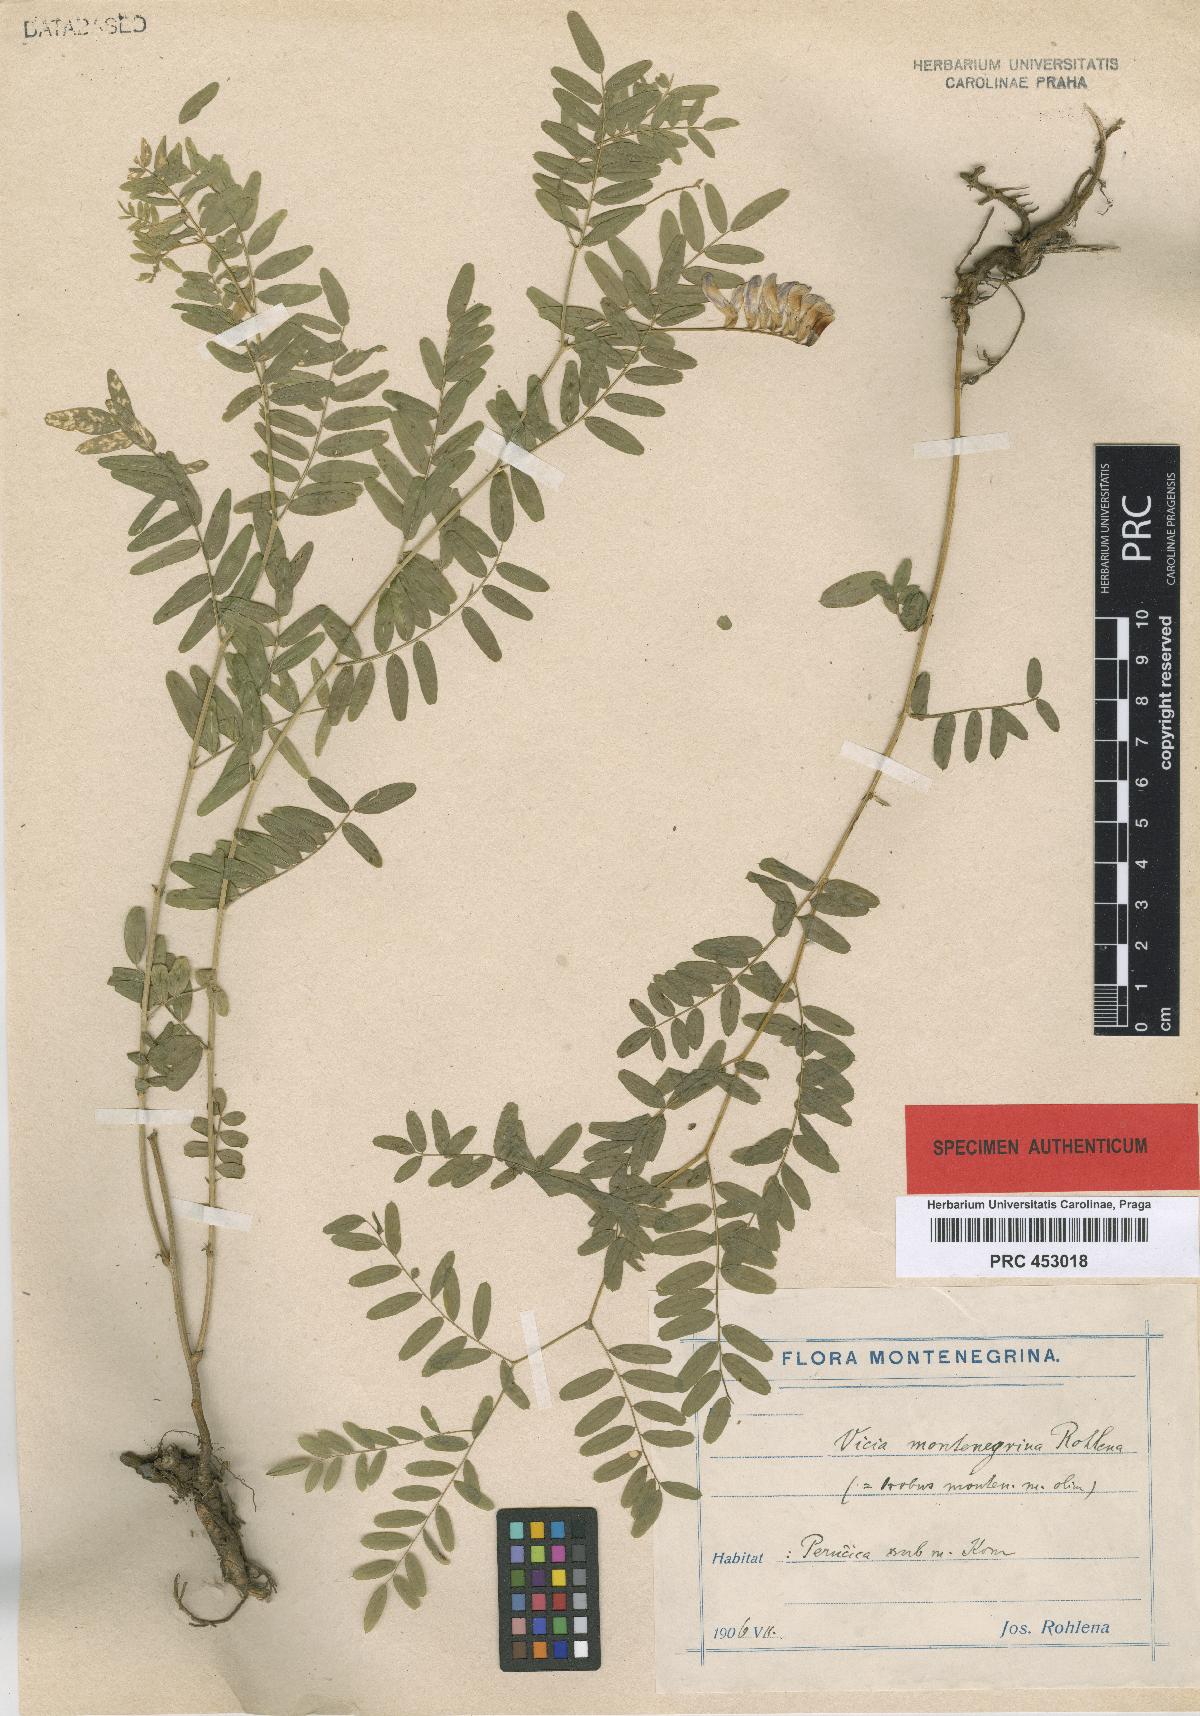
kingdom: Plantae
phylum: Tracheophyta
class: Magnoliopsida
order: Fabales
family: Fabaceae
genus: Vicia
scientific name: Vicia montenegrina
